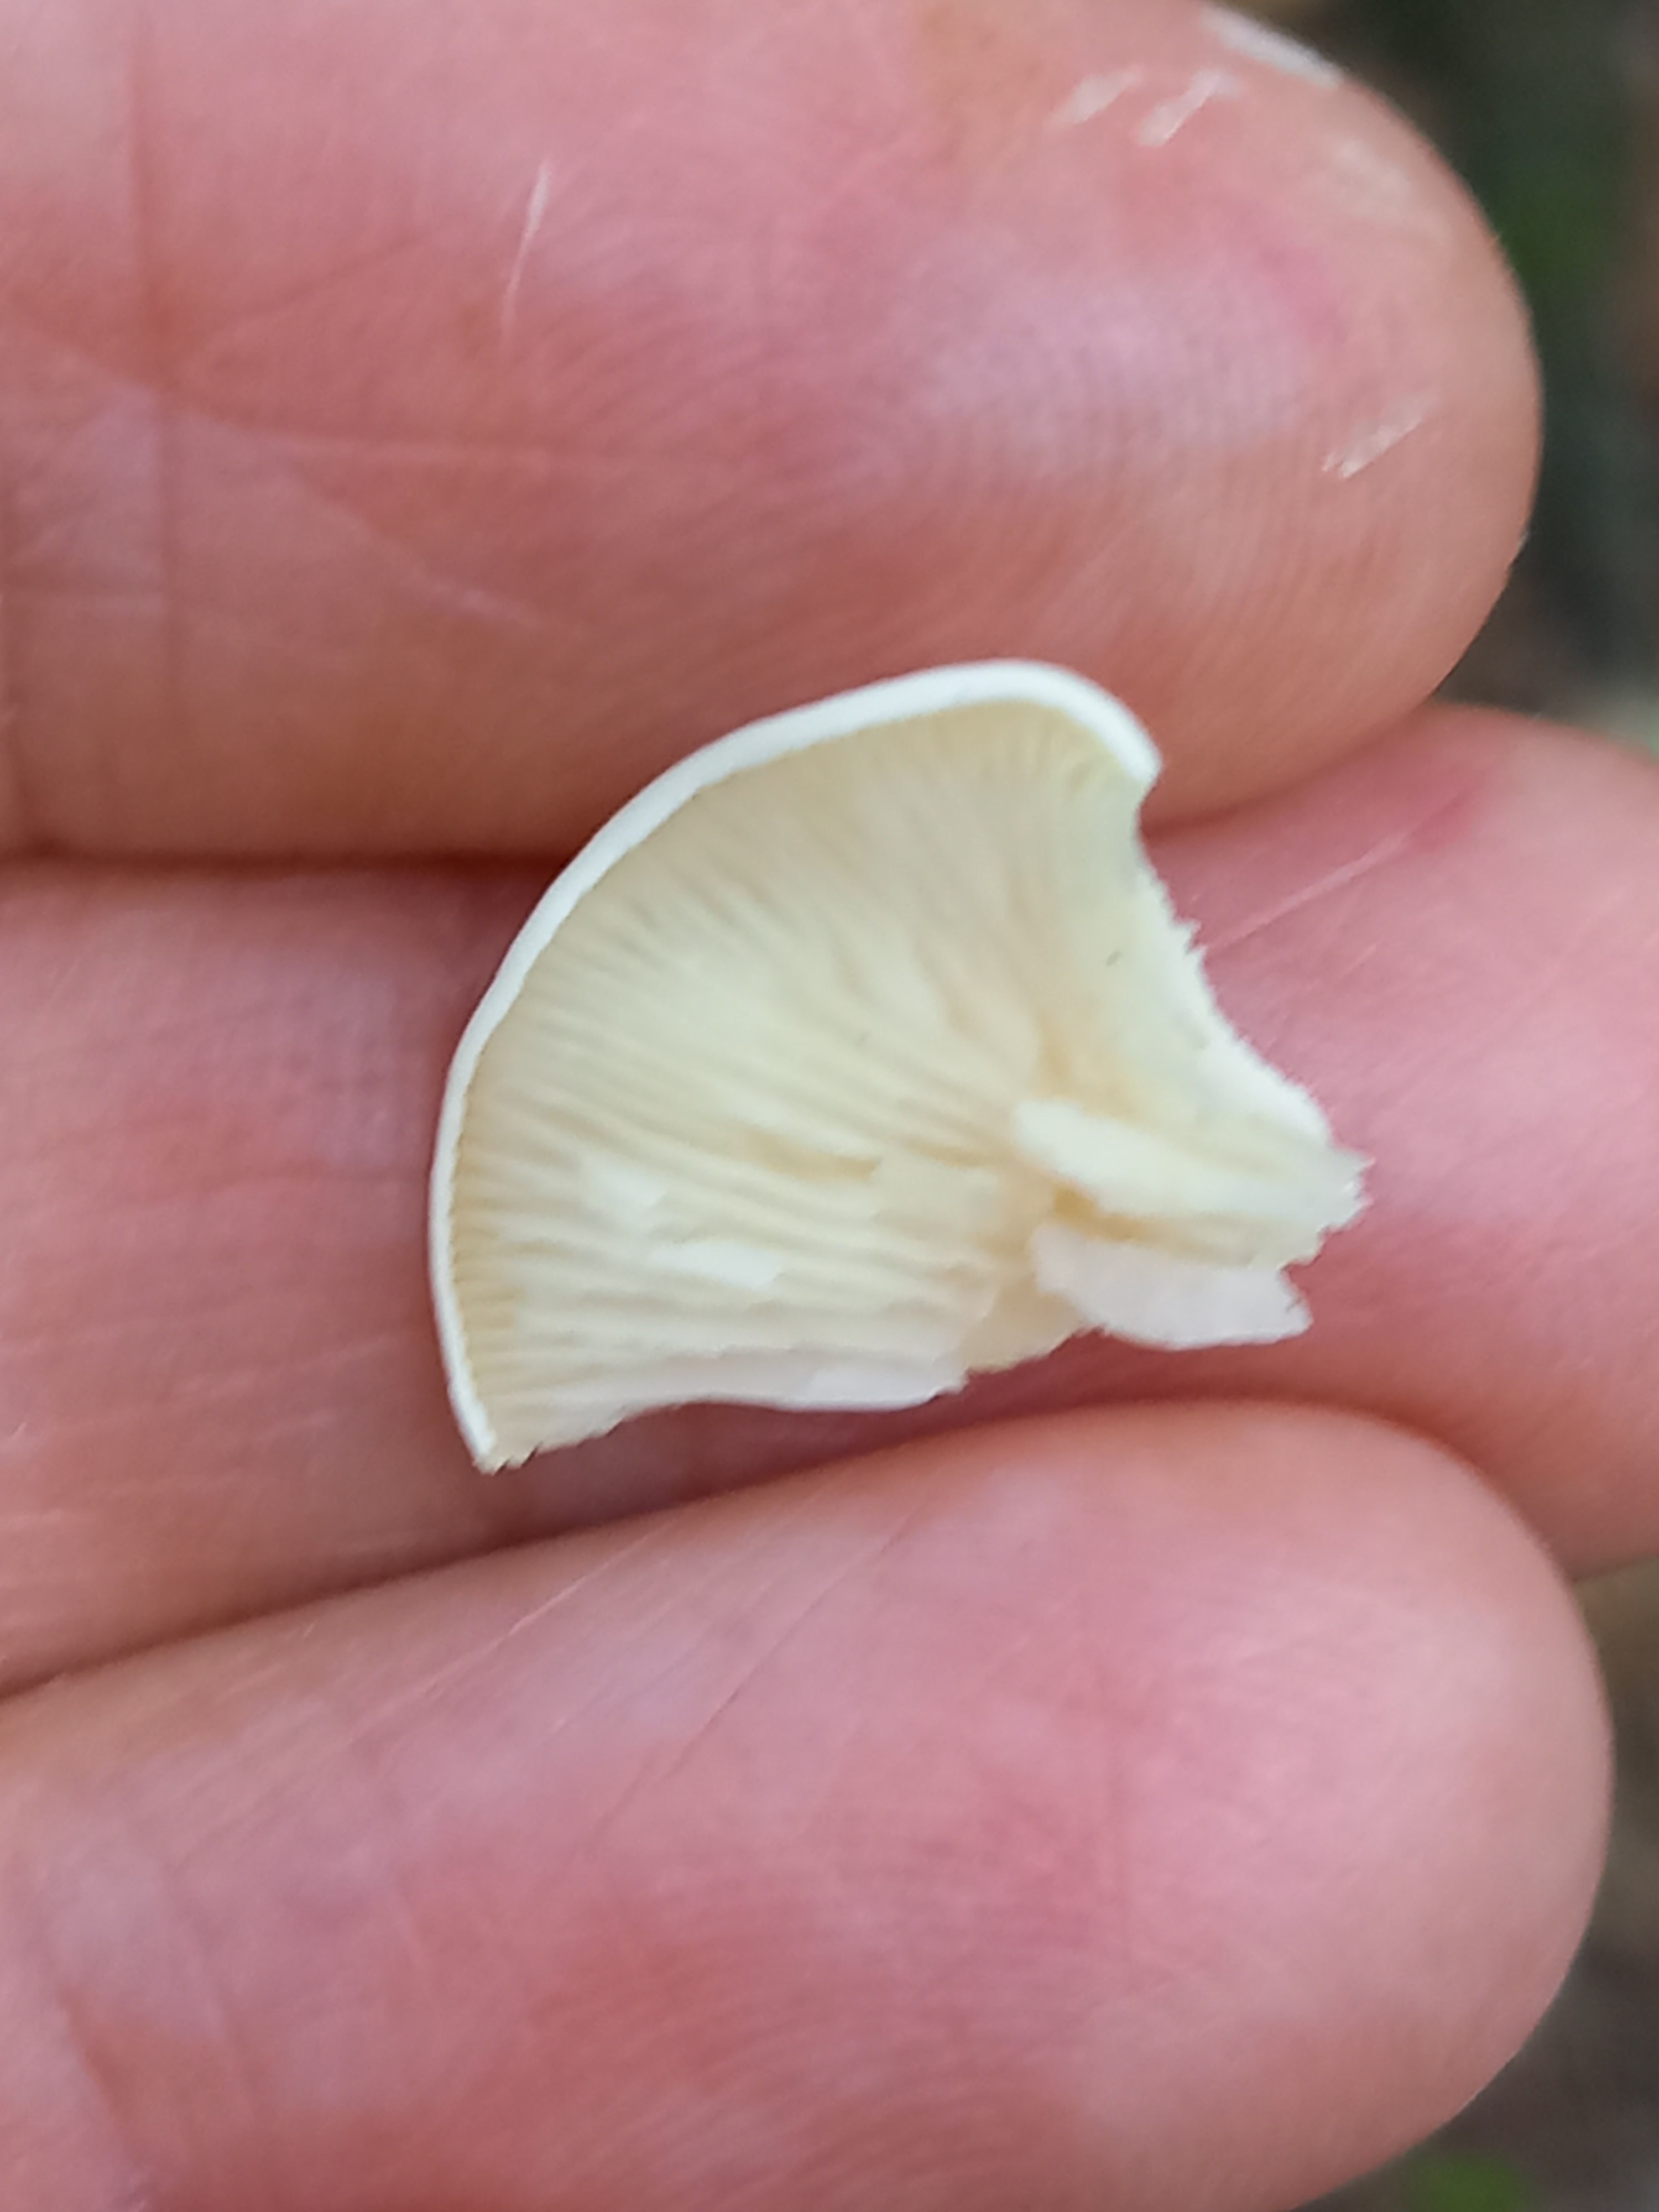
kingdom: Fungi
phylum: Basidiomycota
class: Agaricomycetes
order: Agaricales
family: Entolomataceae
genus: Clitopilus
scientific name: Clitopilus
